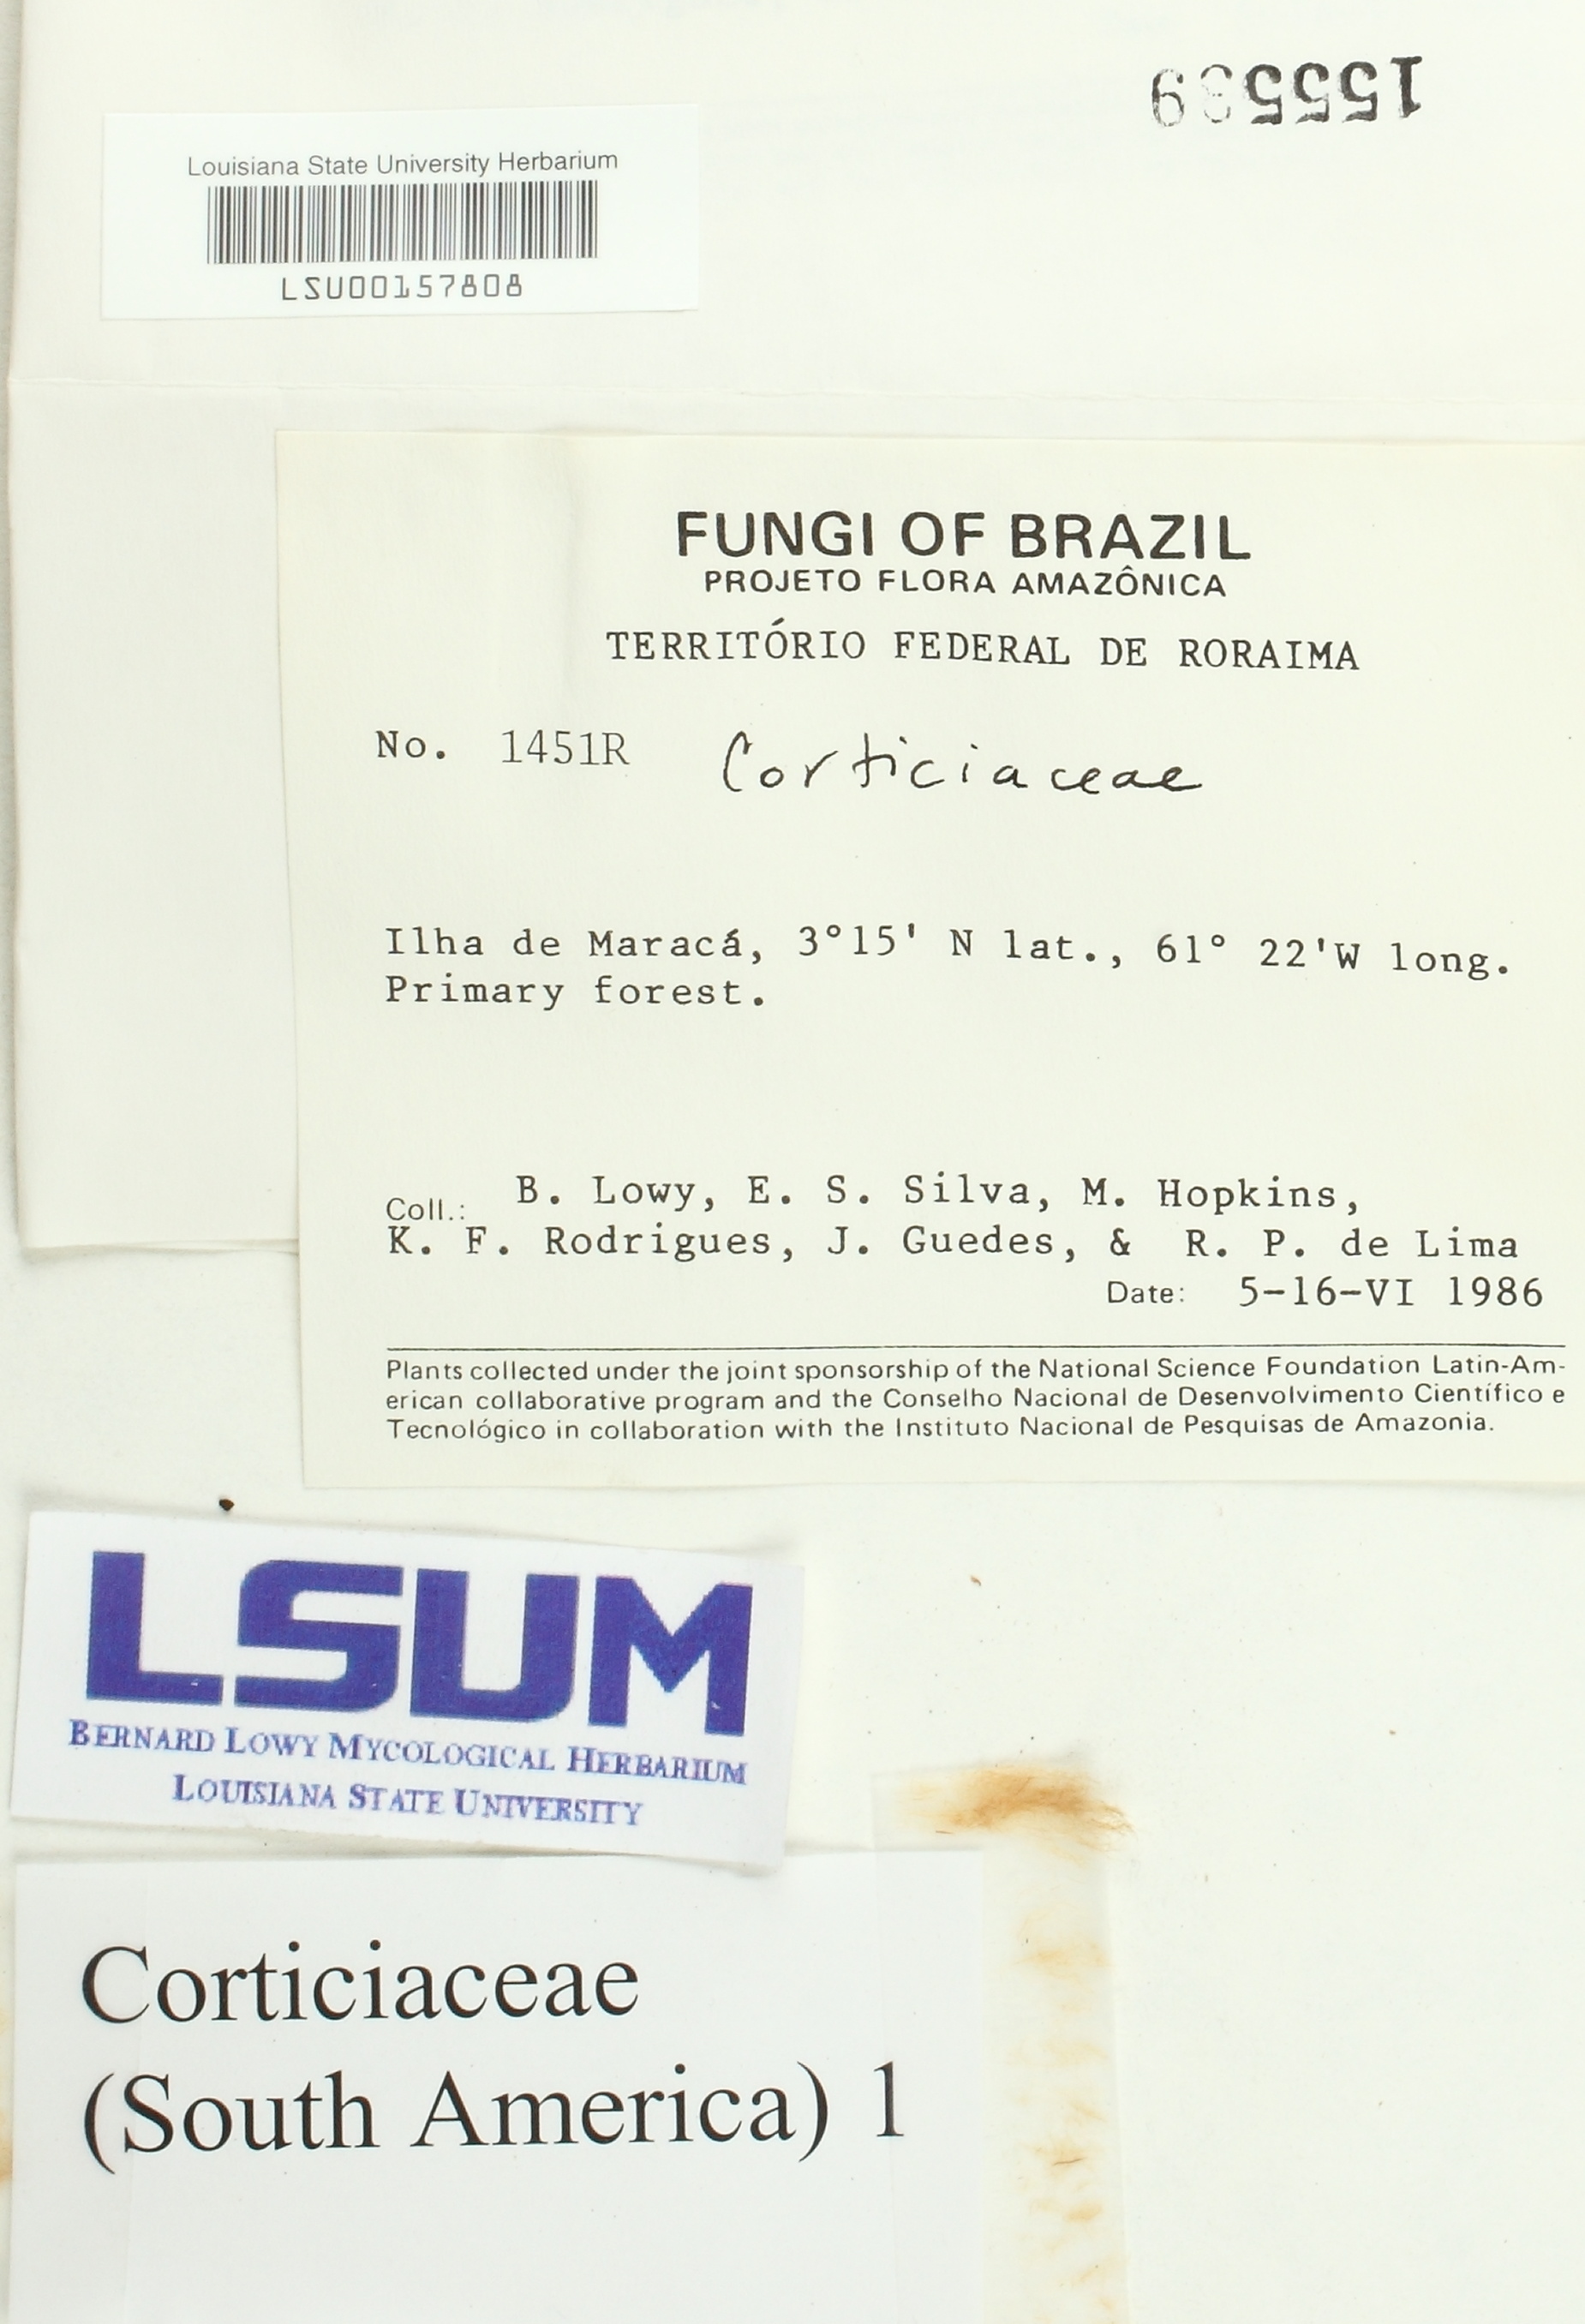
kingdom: Fungi
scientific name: Fungi
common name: Fungi
